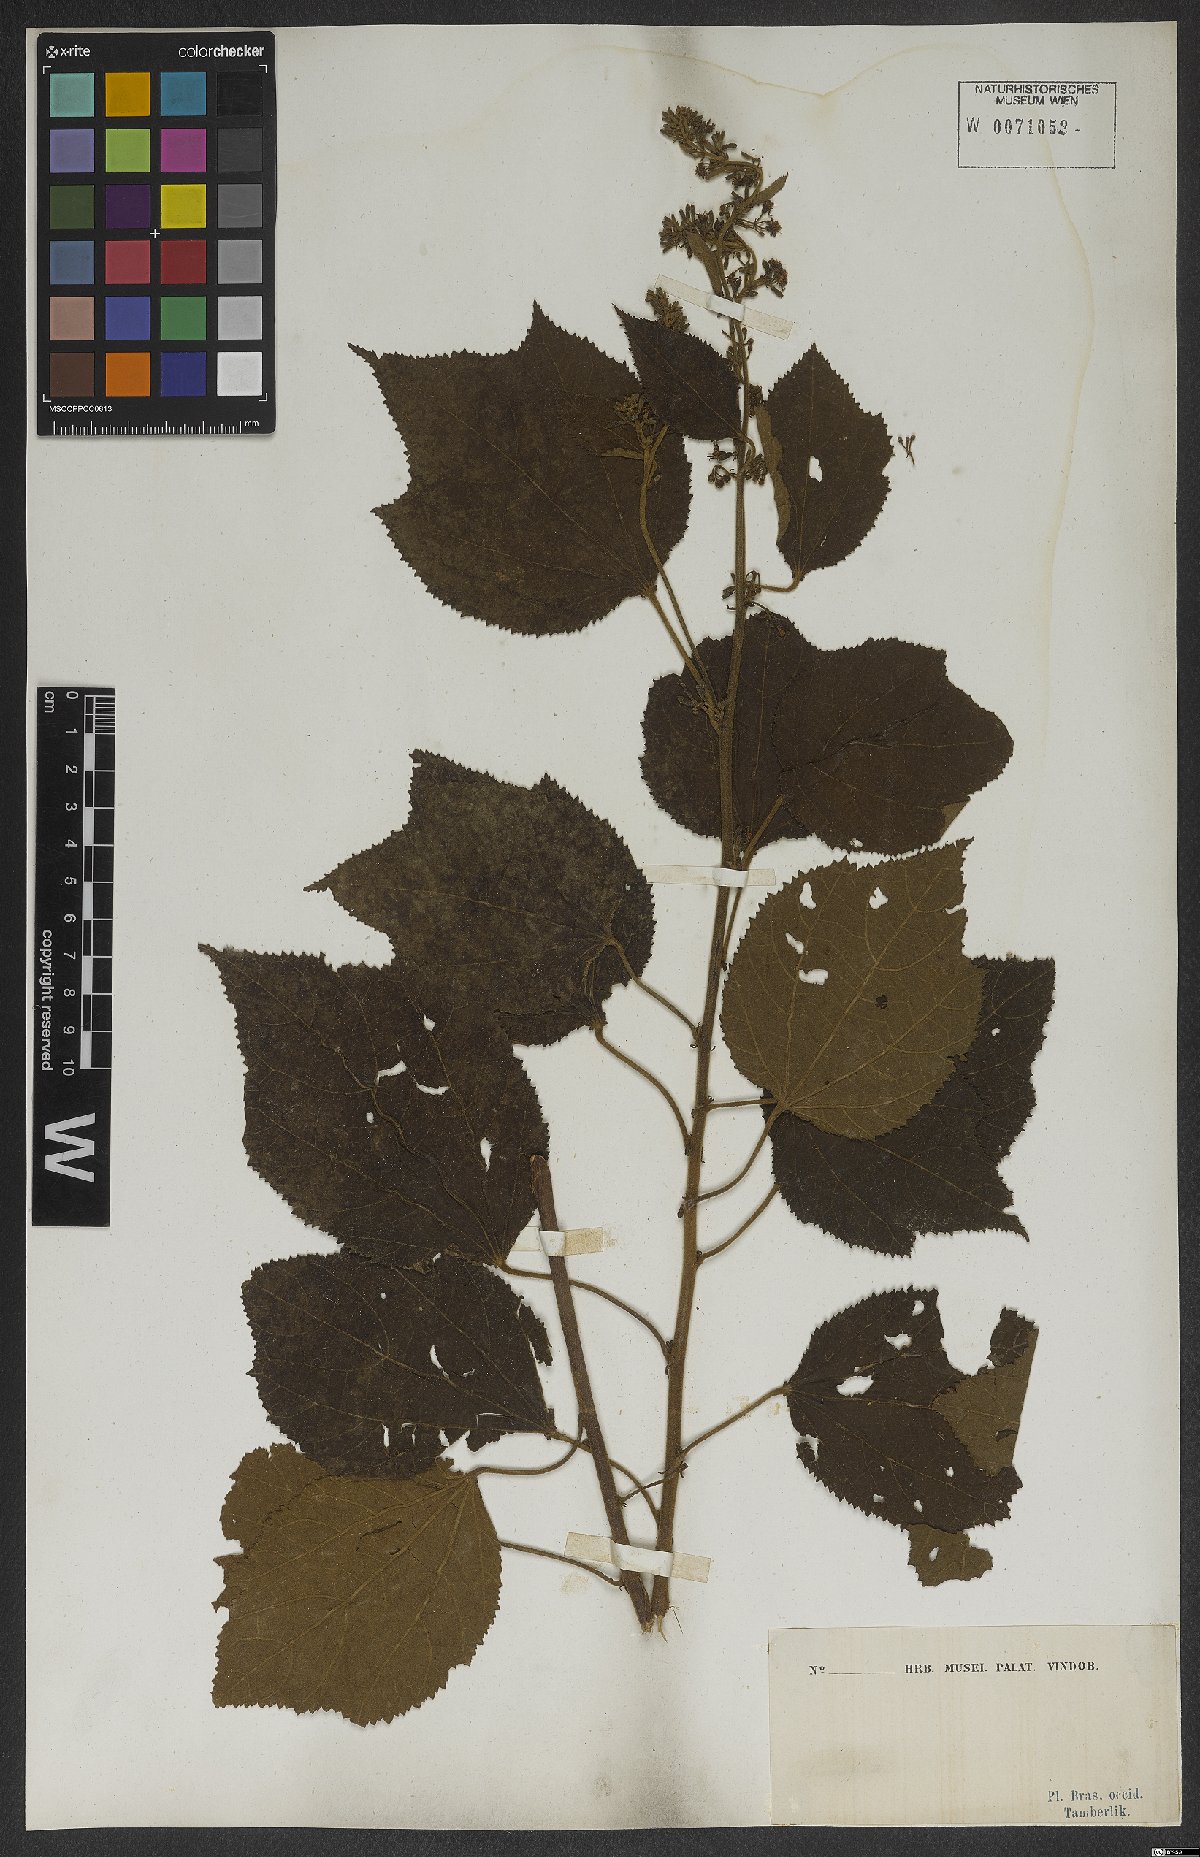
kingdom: Plantae
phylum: Tracheophyta
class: Magnoliopsida
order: Malvales
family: Malvaceae
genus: Triumfetta
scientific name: Triumfetta
